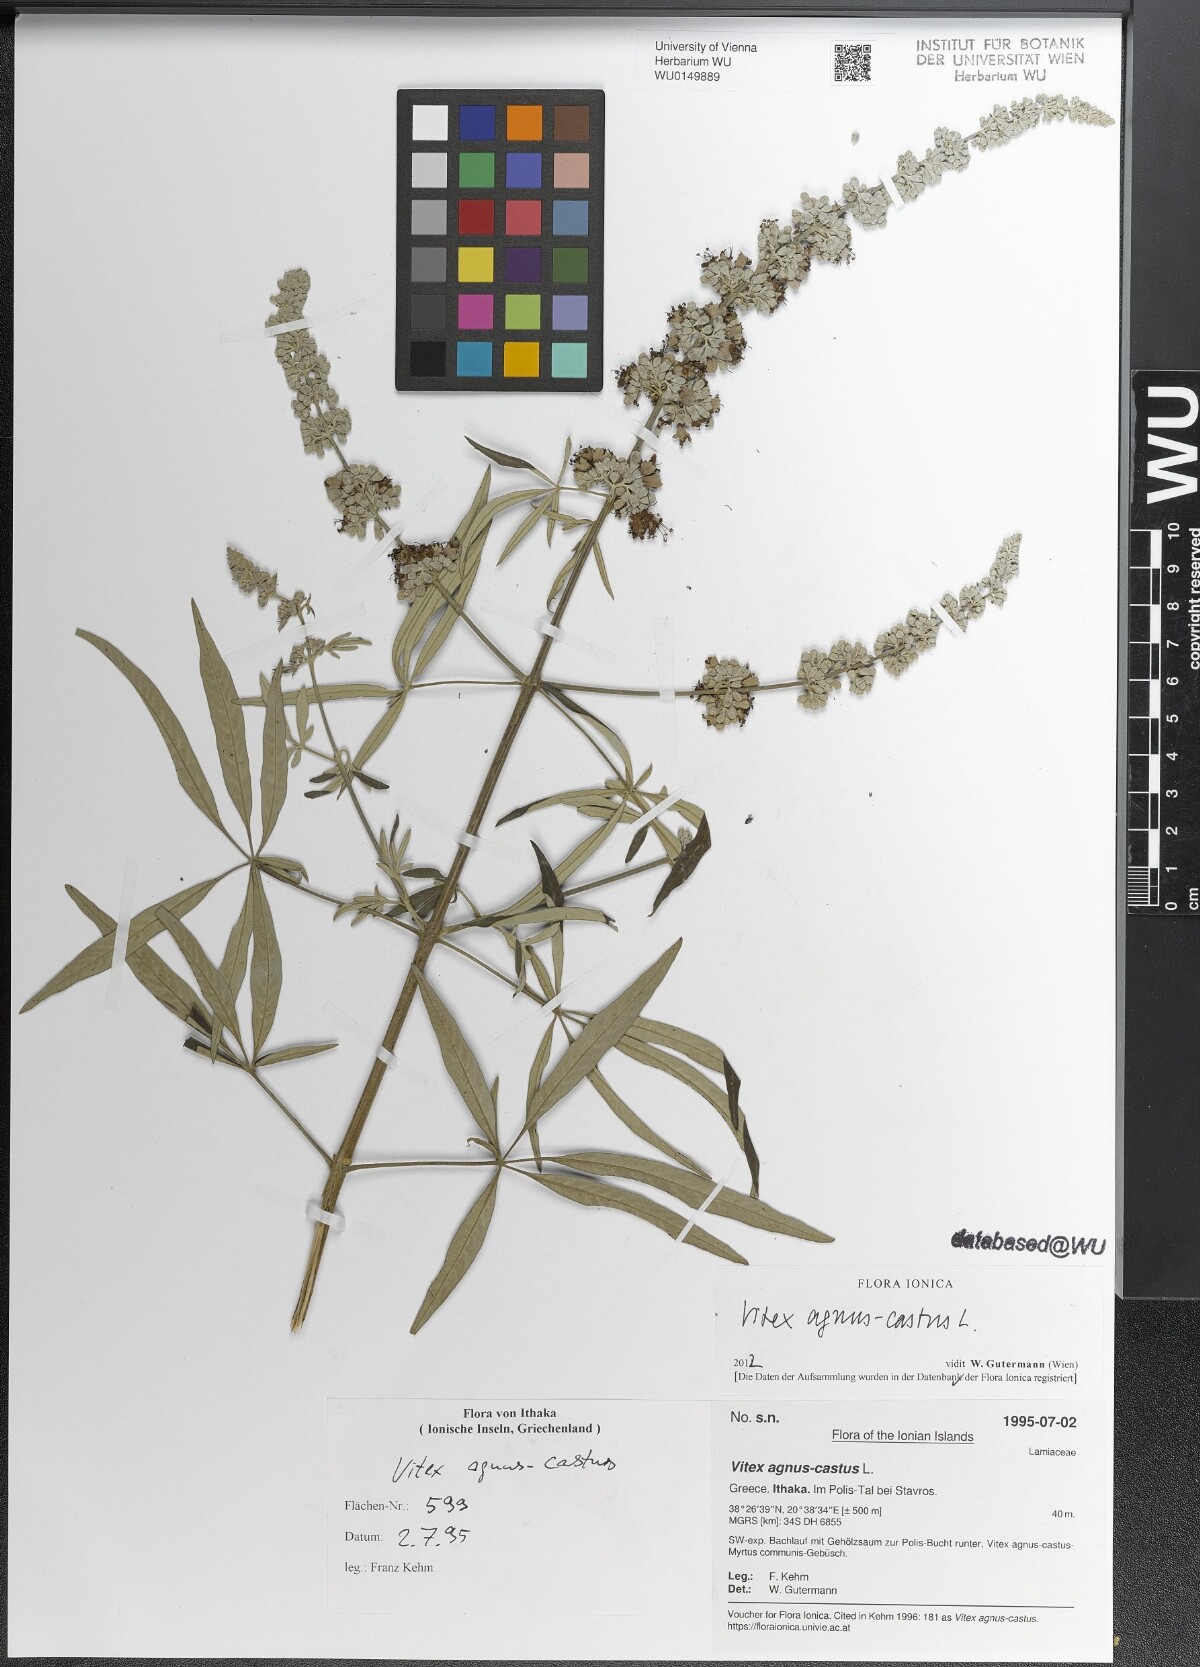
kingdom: Plantae
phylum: Tracheophyta
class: Magnoliopsida
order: Lamiales
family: Lamiaceae
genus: Vitex
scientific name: Vitex agnus-castus
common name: Chasteberry
